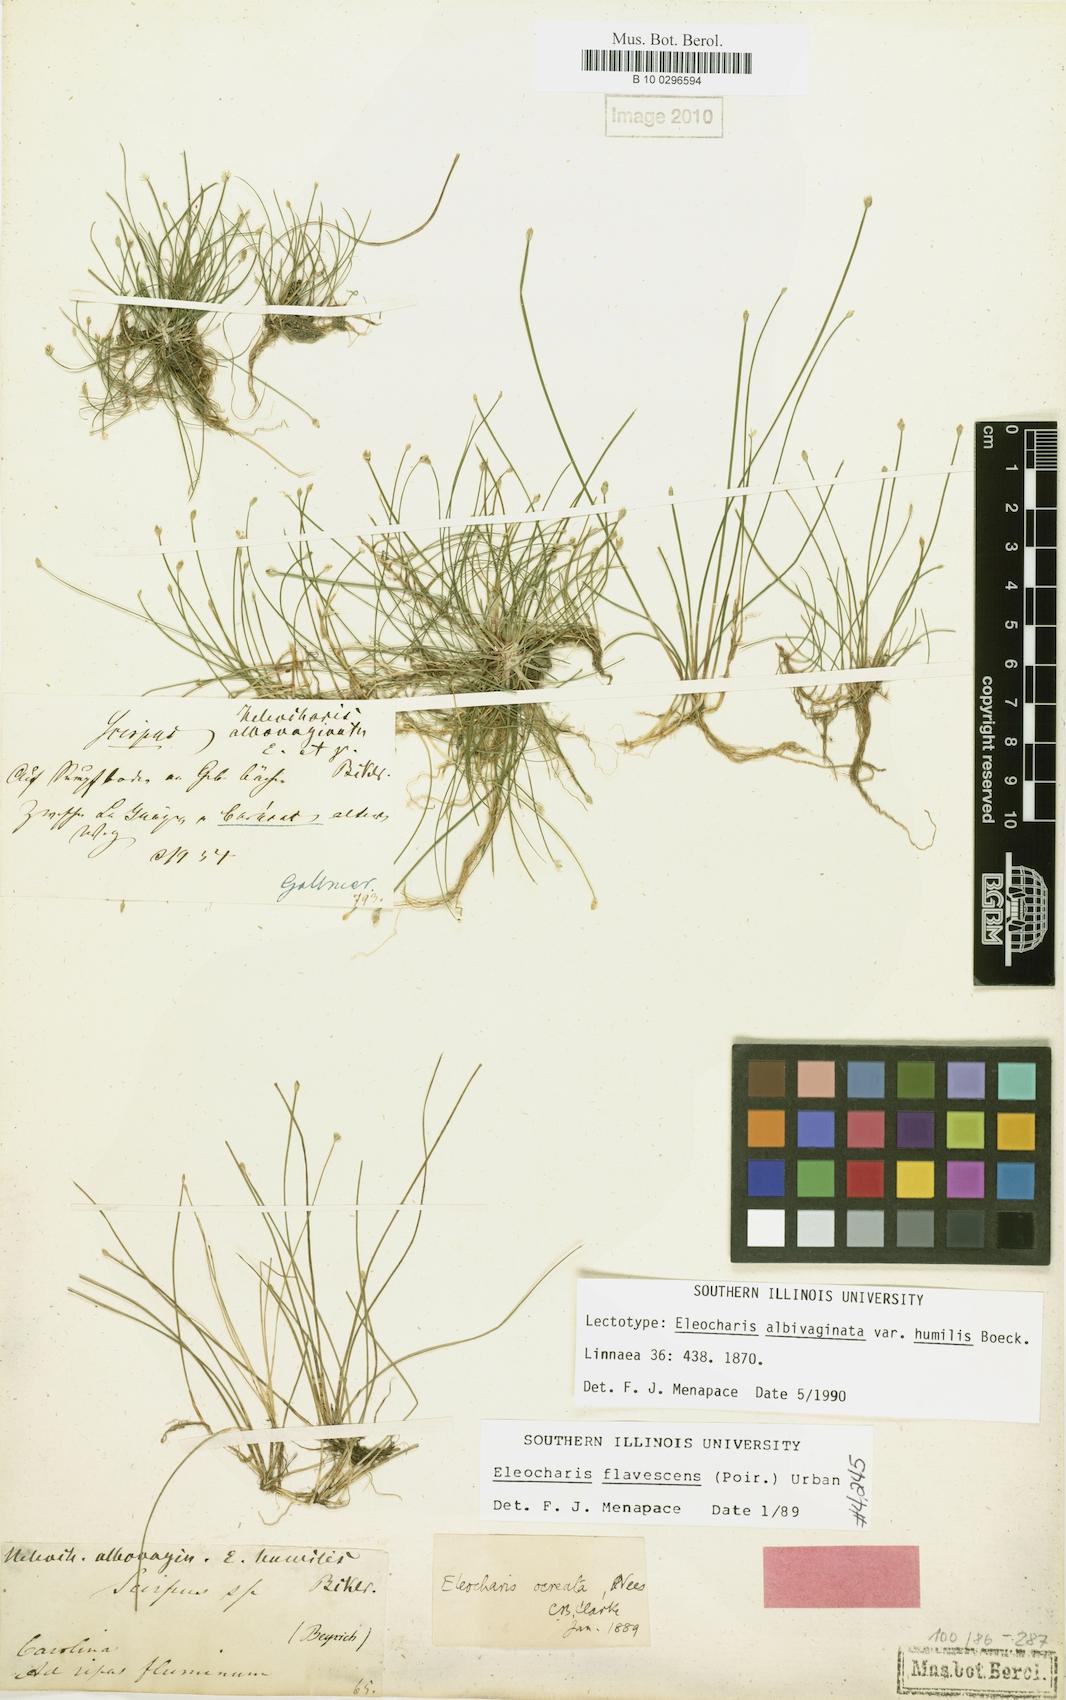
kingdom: Plantae
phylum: Tracheophyta
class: Liliopsida
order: Poales
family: Cyperaceae
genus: Eleocharis
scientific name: Eleocharis flavescens
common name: Yellow spikerush
